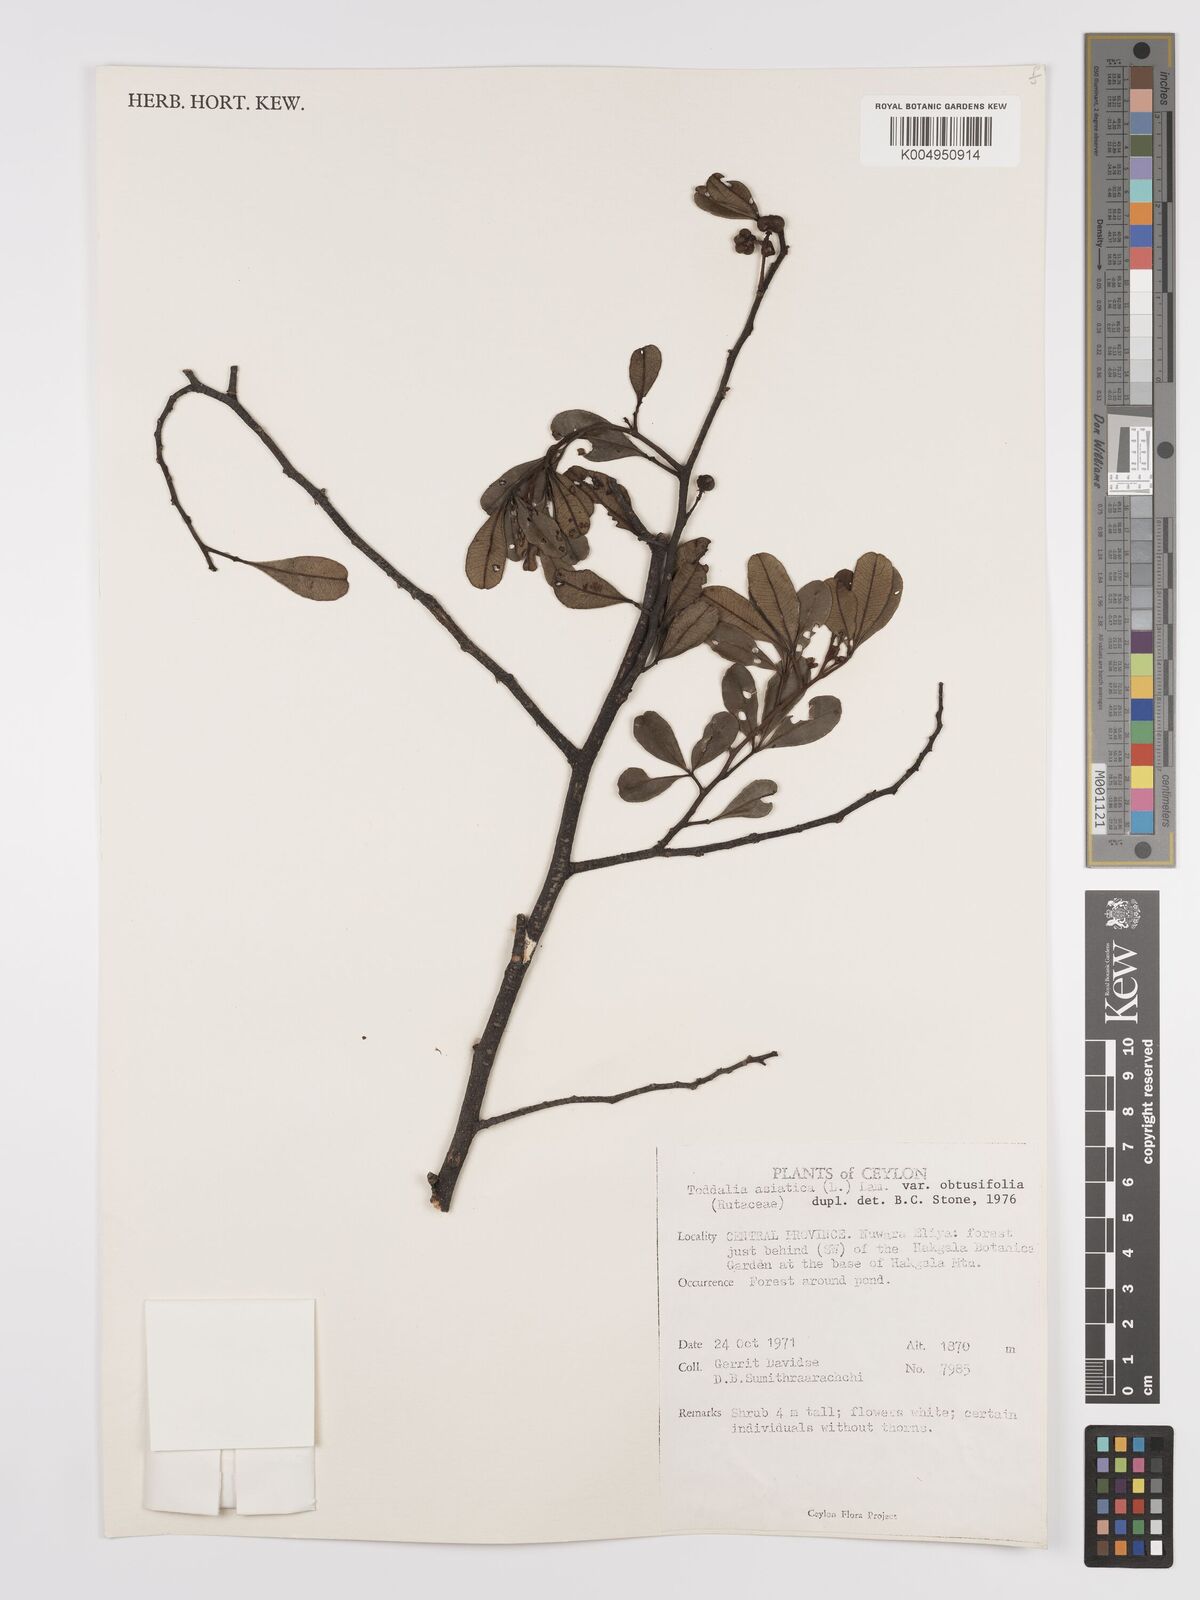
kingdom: Plantae
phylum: Tracheophyta
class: Magnoliopsida
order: Sapindales
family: Rutaceae
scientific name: Rutaceae
